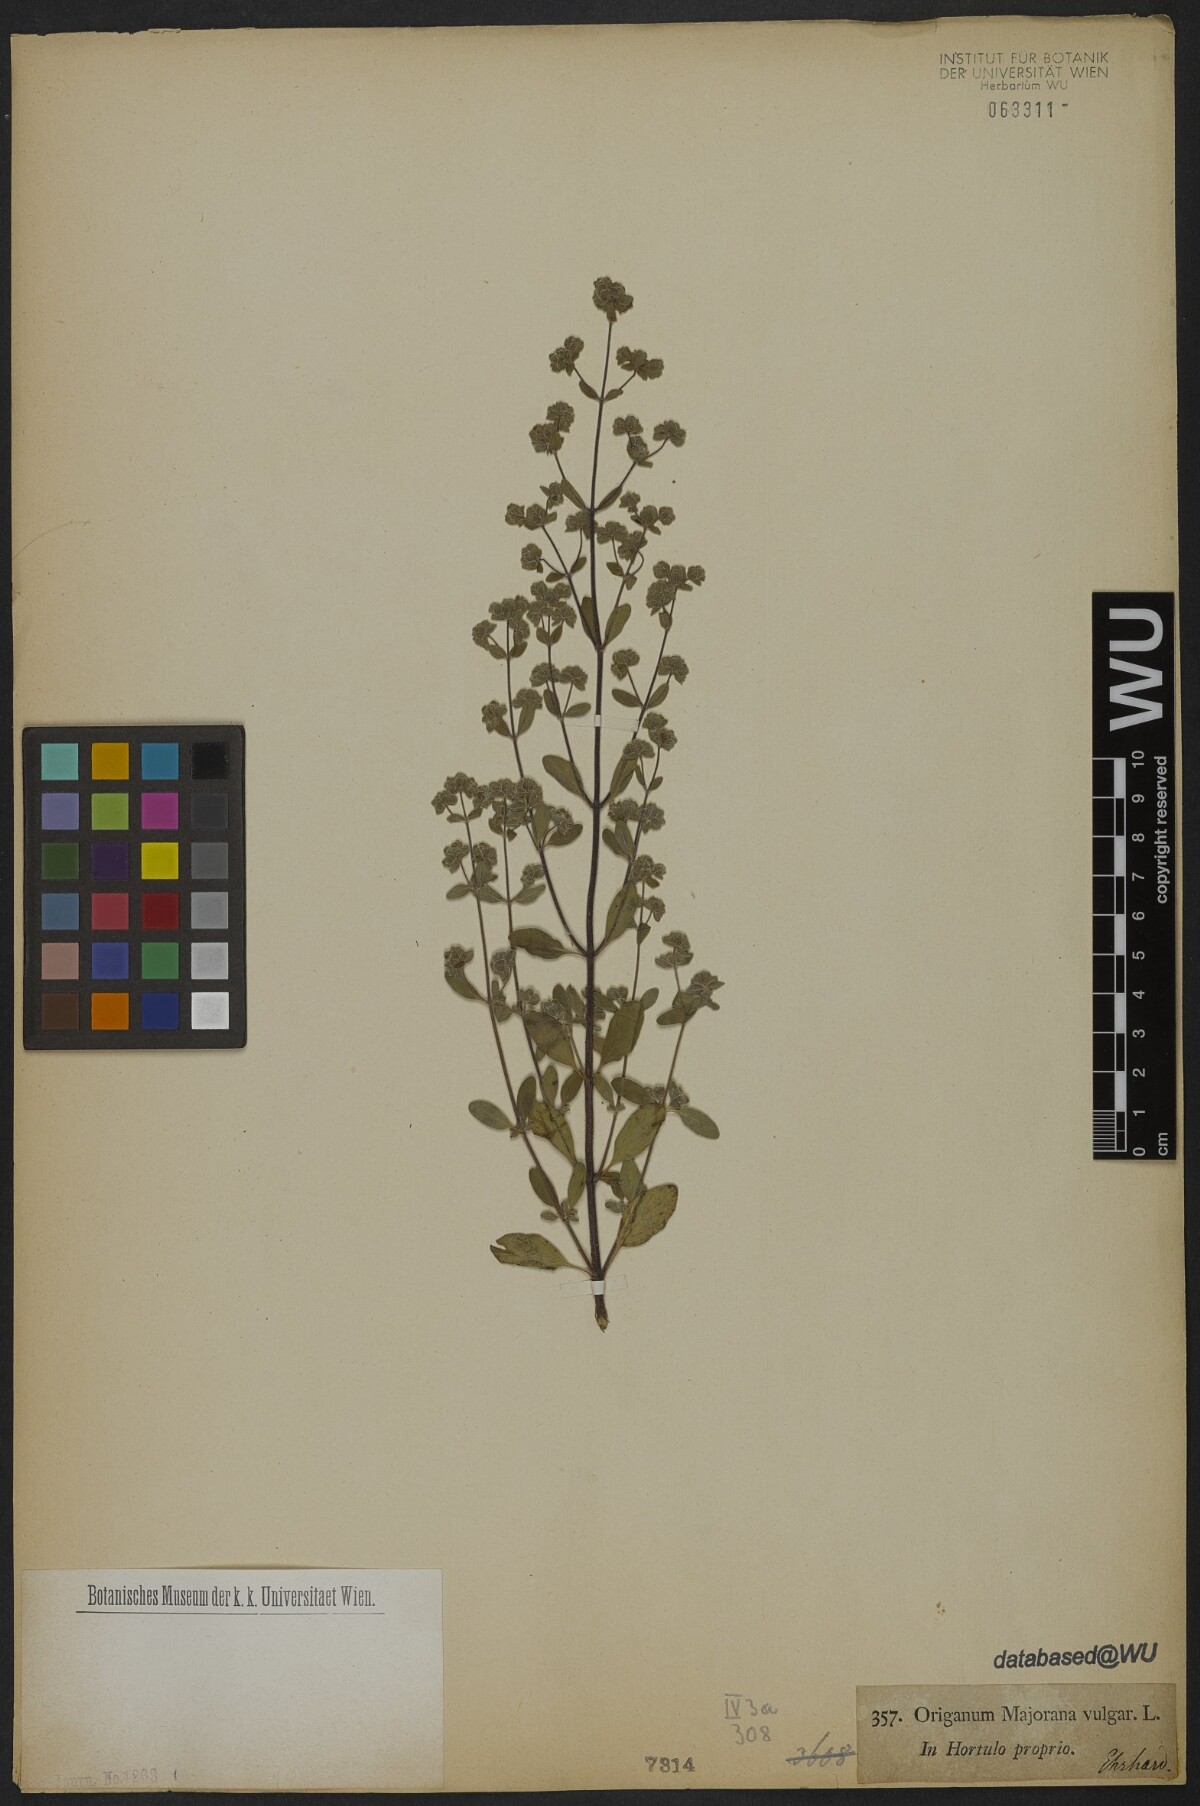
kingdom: Plantae
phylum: Tracheophyta
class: Magnoliopsida
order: Lamiales
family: Lamiaceae
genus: Origanum
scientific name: Origanum majorana
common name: Sweet marjoram
